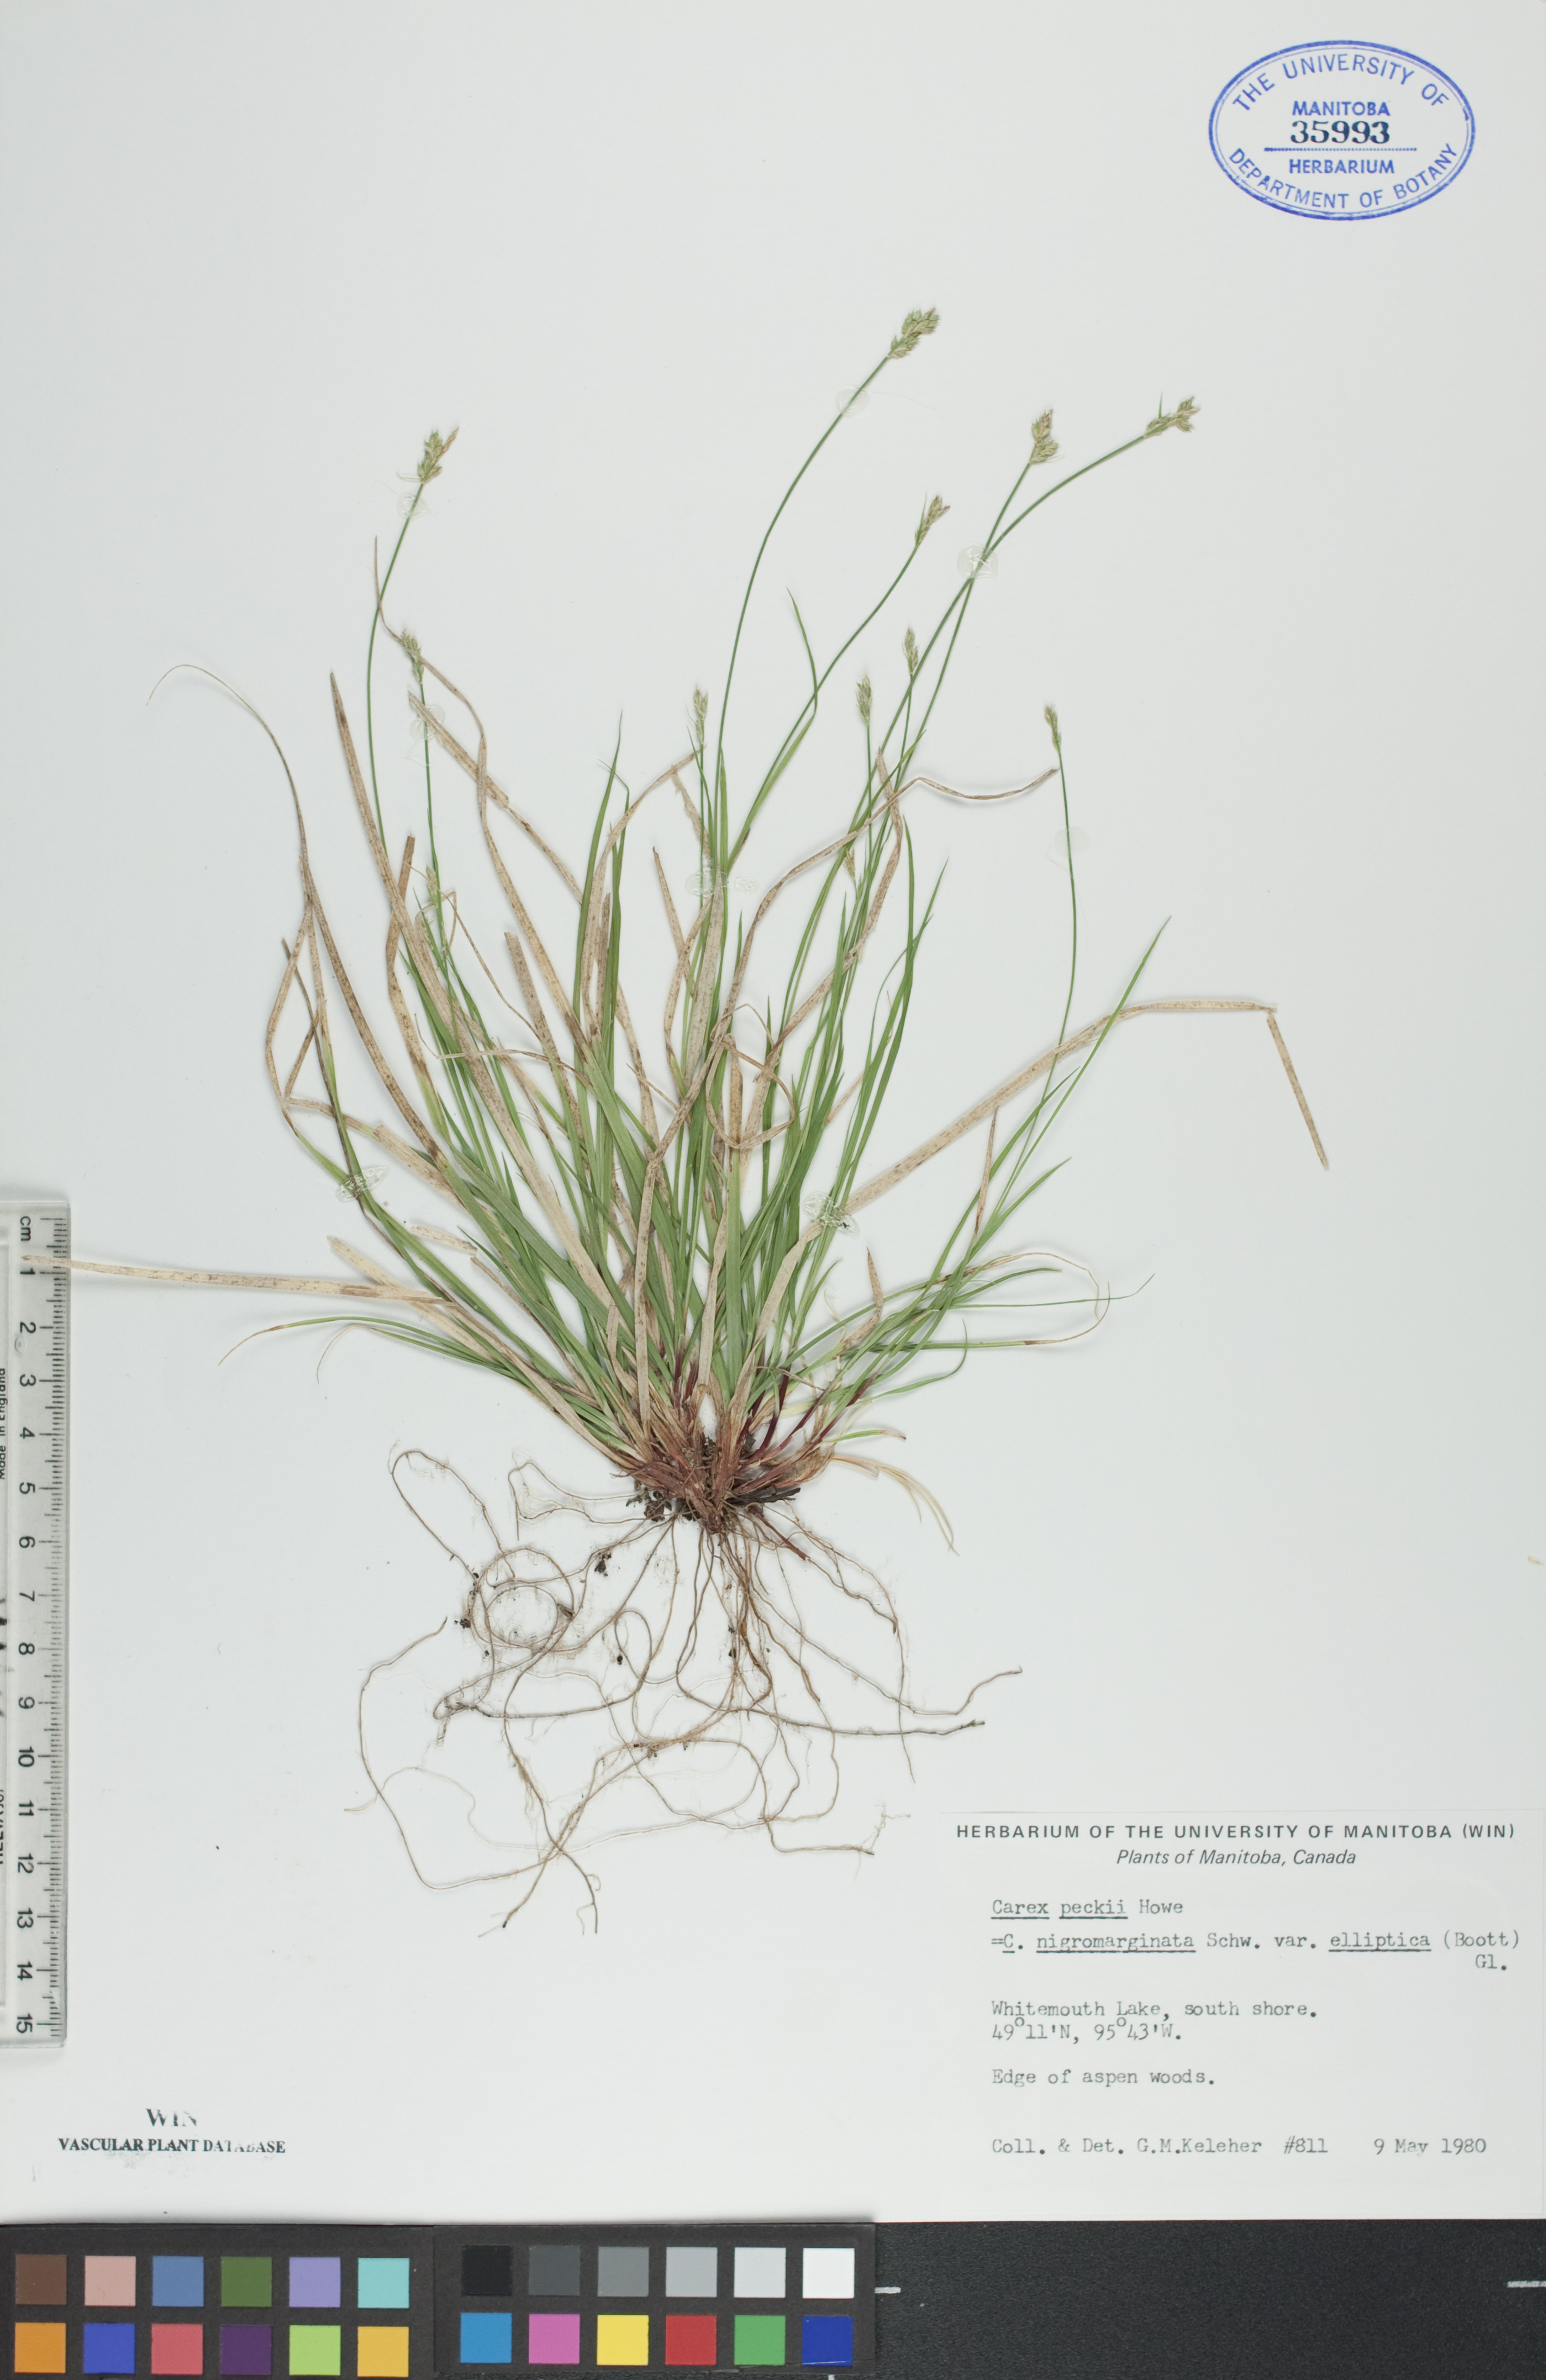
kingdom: Plantae
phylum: Tracheophyta
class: Liliopsida
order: Poales
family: Cyperaceae
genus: Carex
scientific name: Carex peckii
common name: Peck's oak sedge
